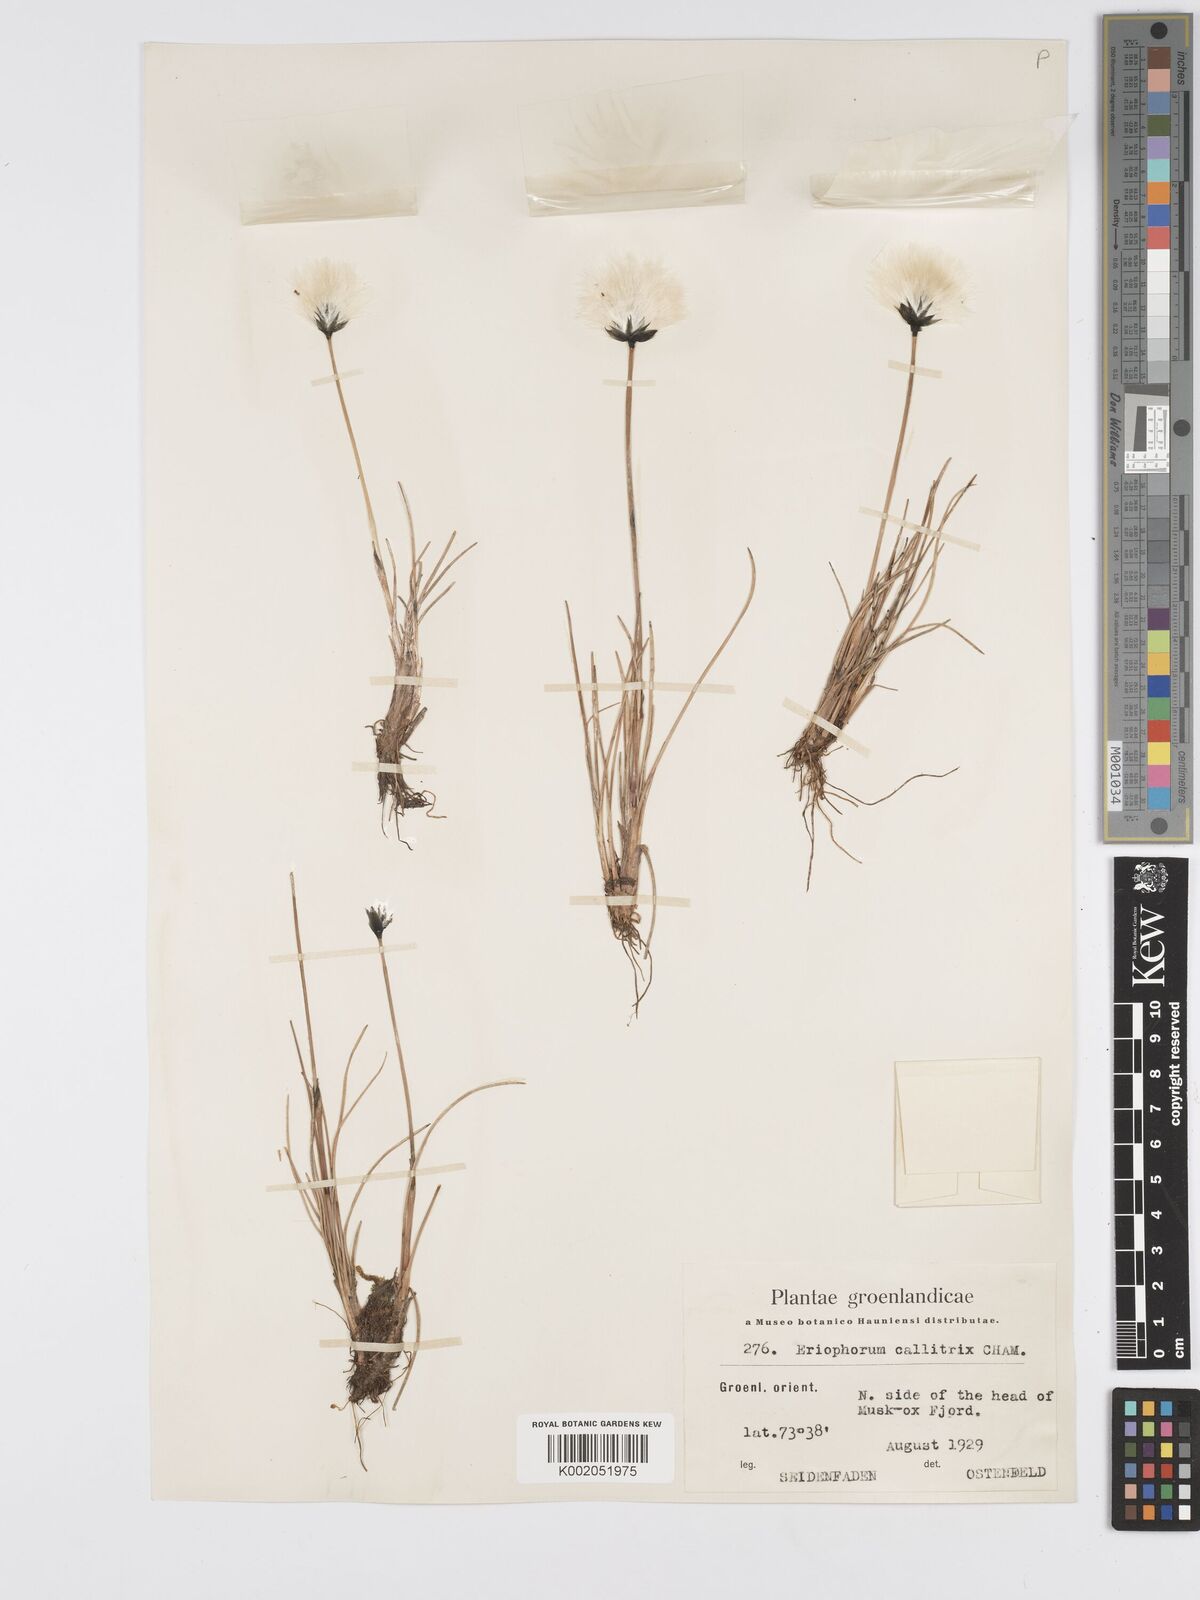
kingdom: Plantae
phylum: Tracheophyta
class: Liliopsida
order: Poales
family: Cyperaceae
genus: Eriophorum
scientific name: Eriophorum callitrix
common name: Arctic cottongrass
